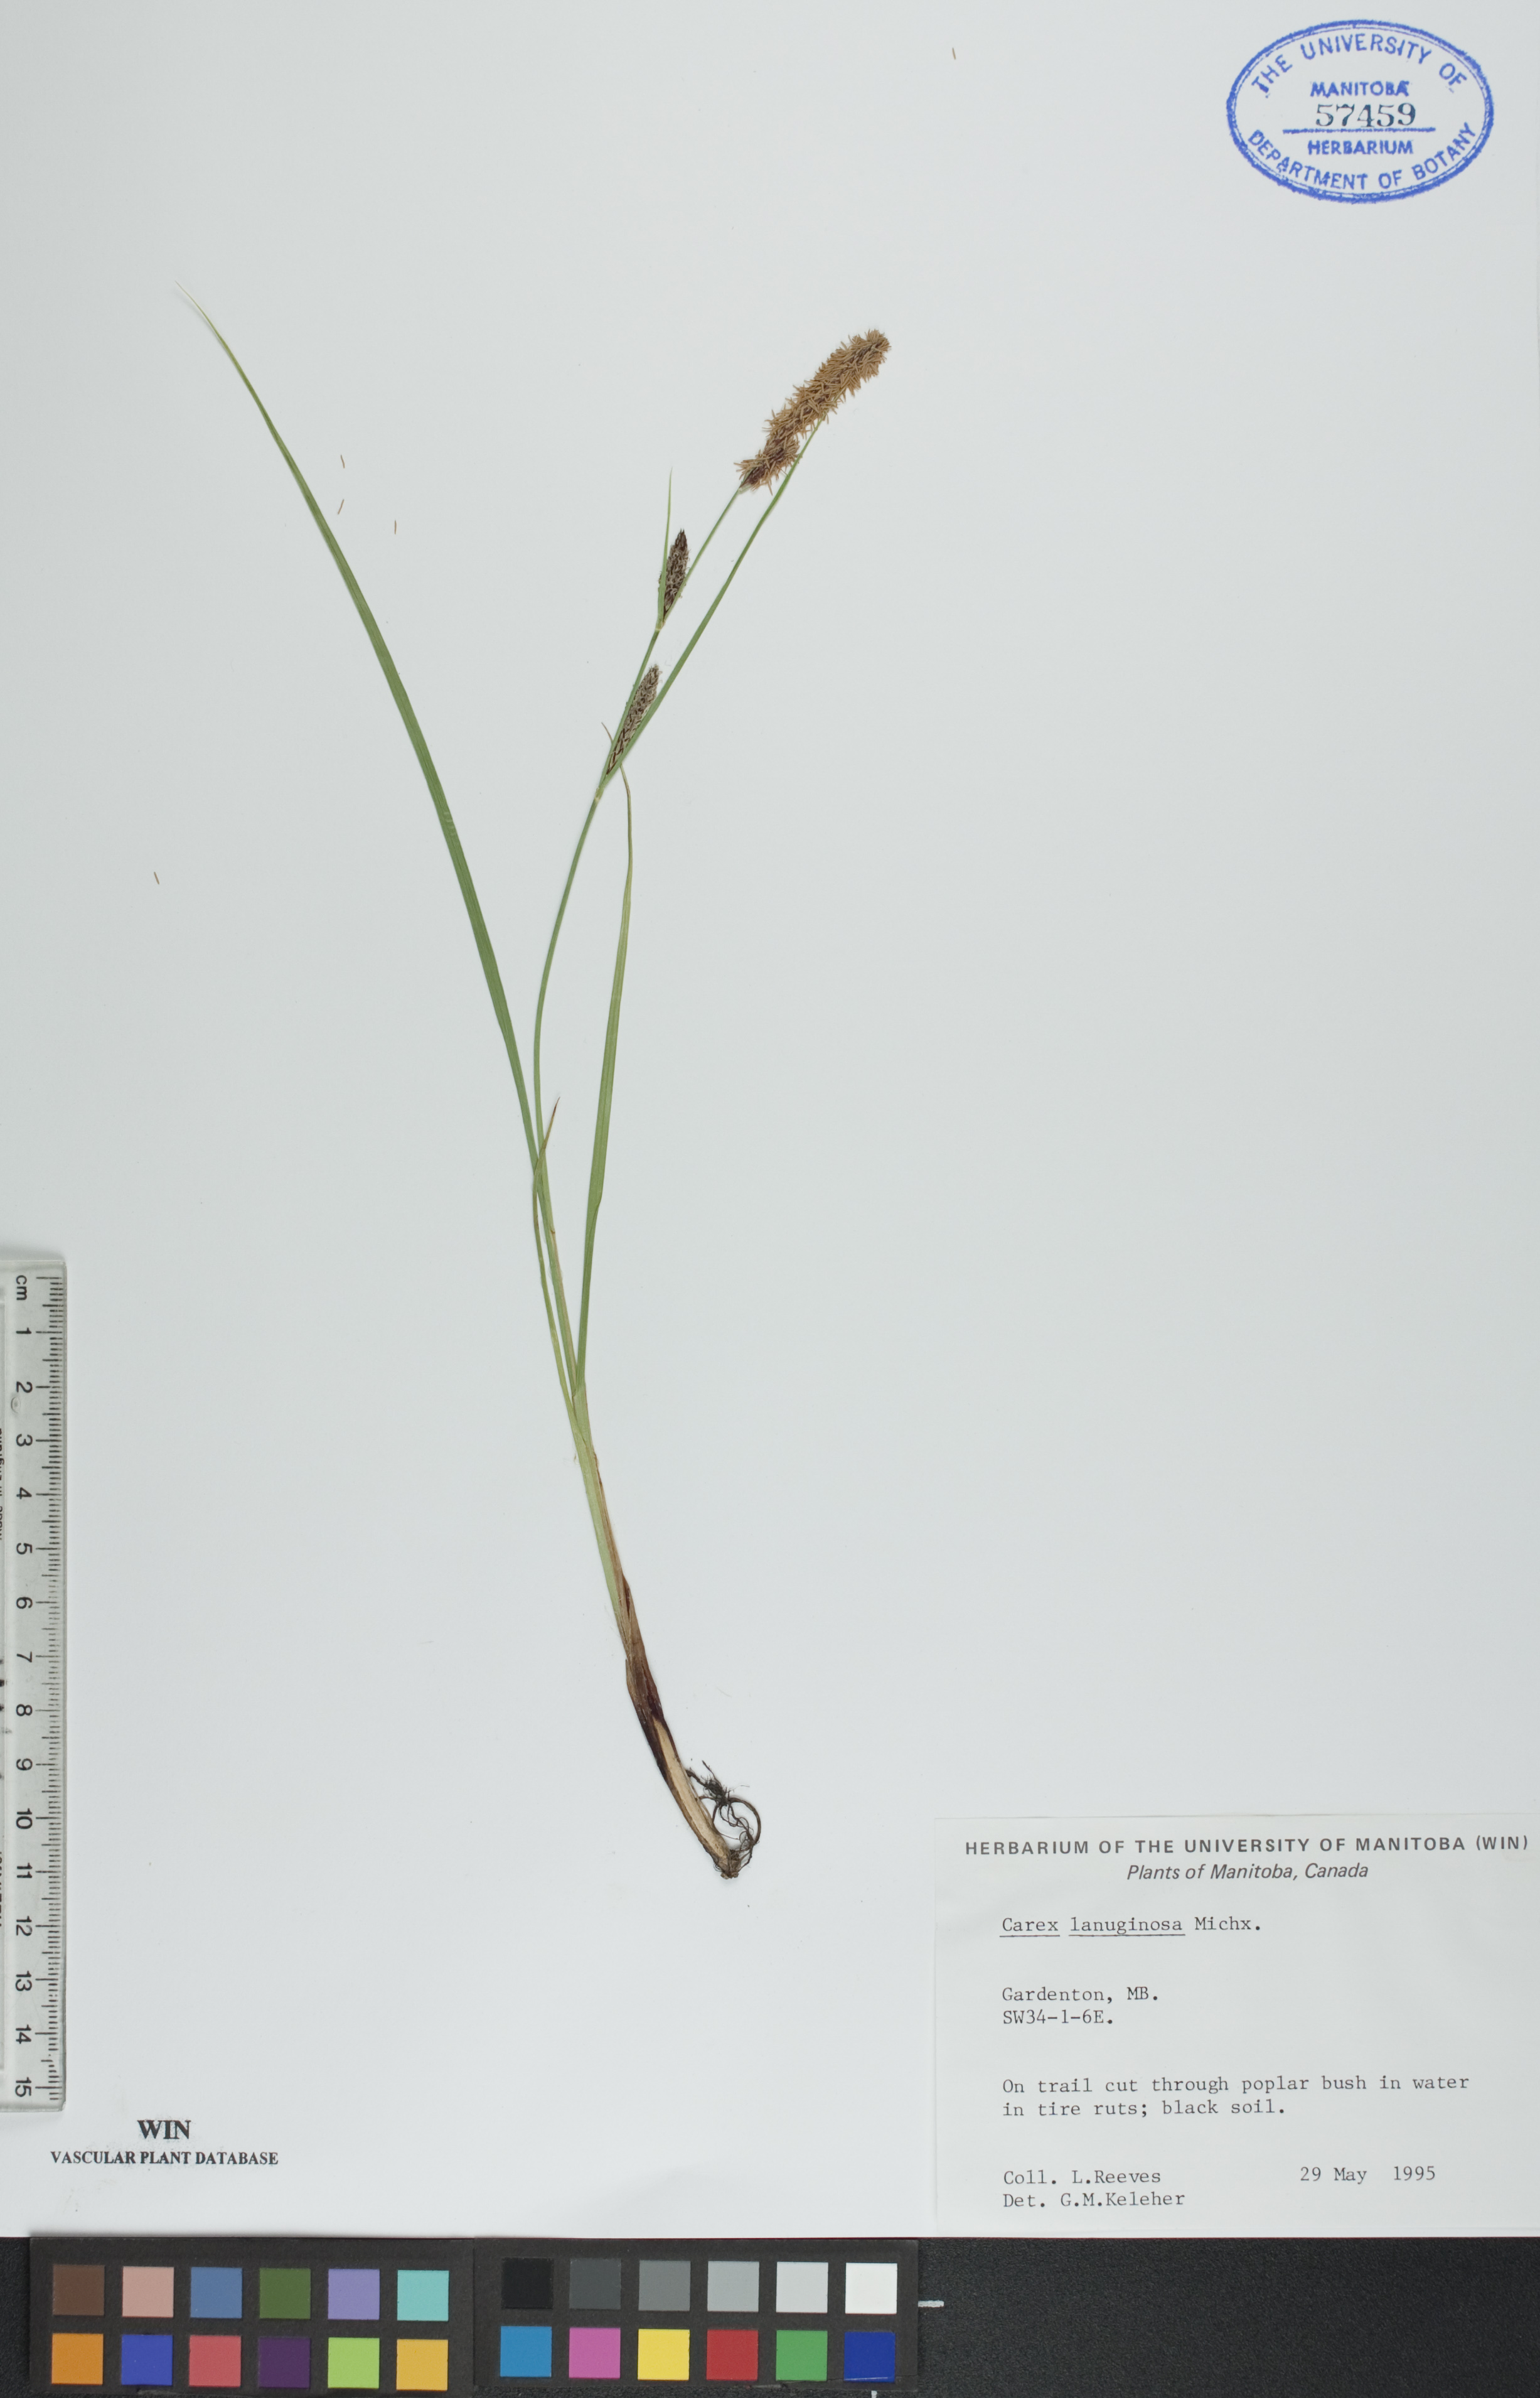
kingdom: Plantae
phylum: Tracheophyta
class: Liliopsida
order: Poales
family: Cyperaceae
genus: Carex
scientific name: Carex lasiocarpa
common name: Slender sedge
